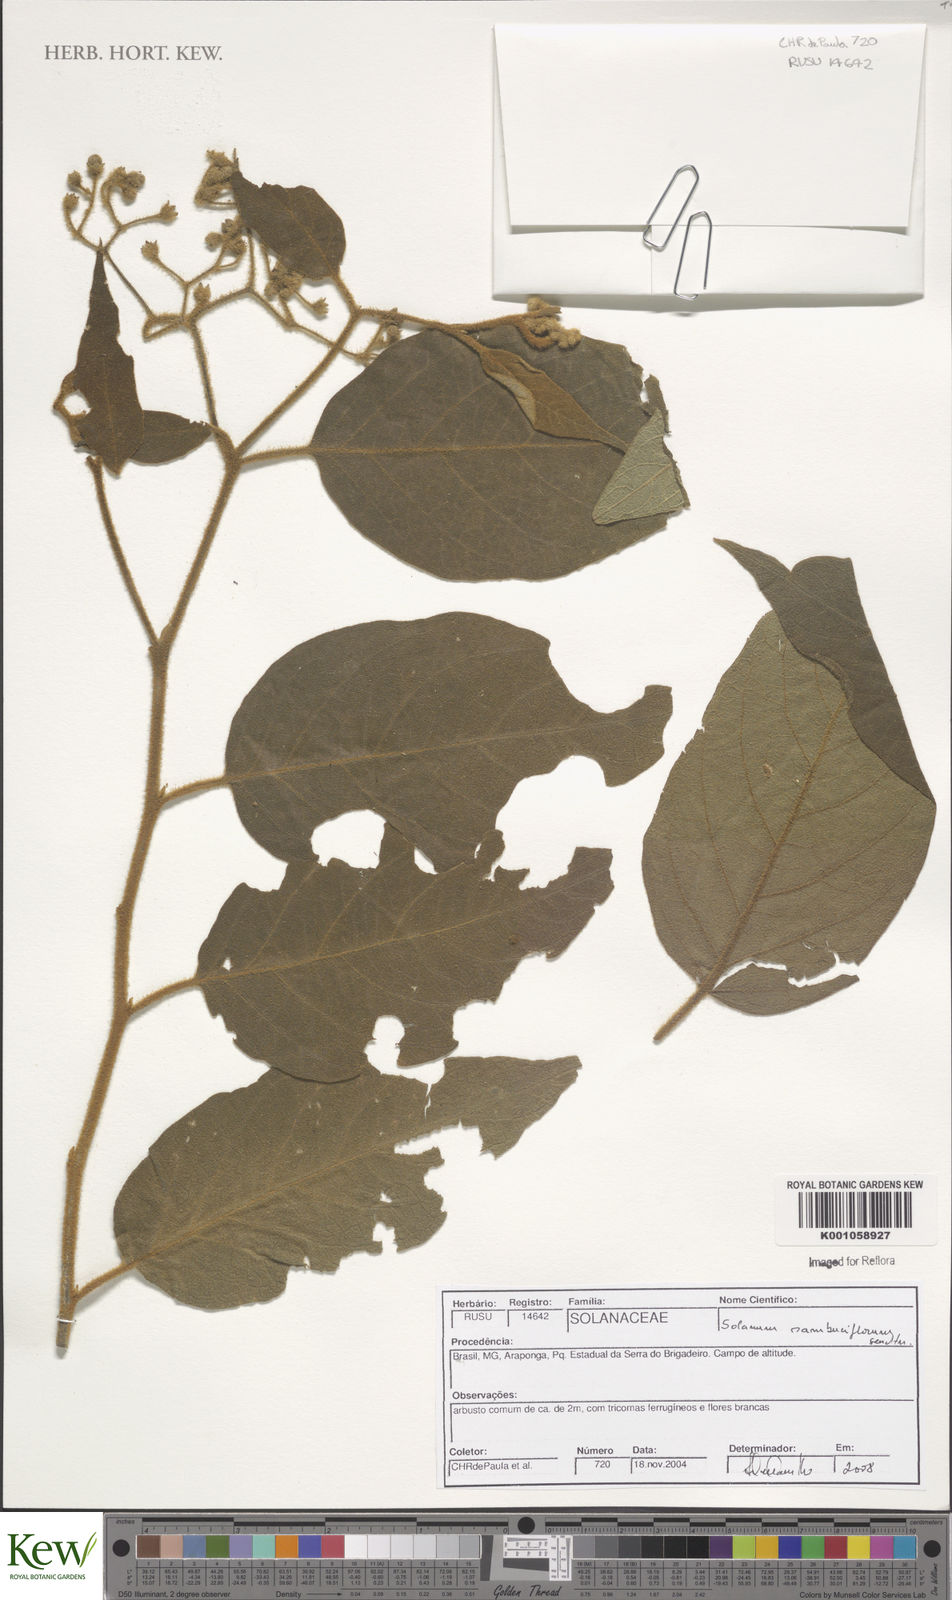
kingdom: Plantae
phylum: Tracheophyta
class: Magnoliopsida
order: Solanales
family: Solanaceae
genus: Solanum
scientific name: Solanum vaillantii
